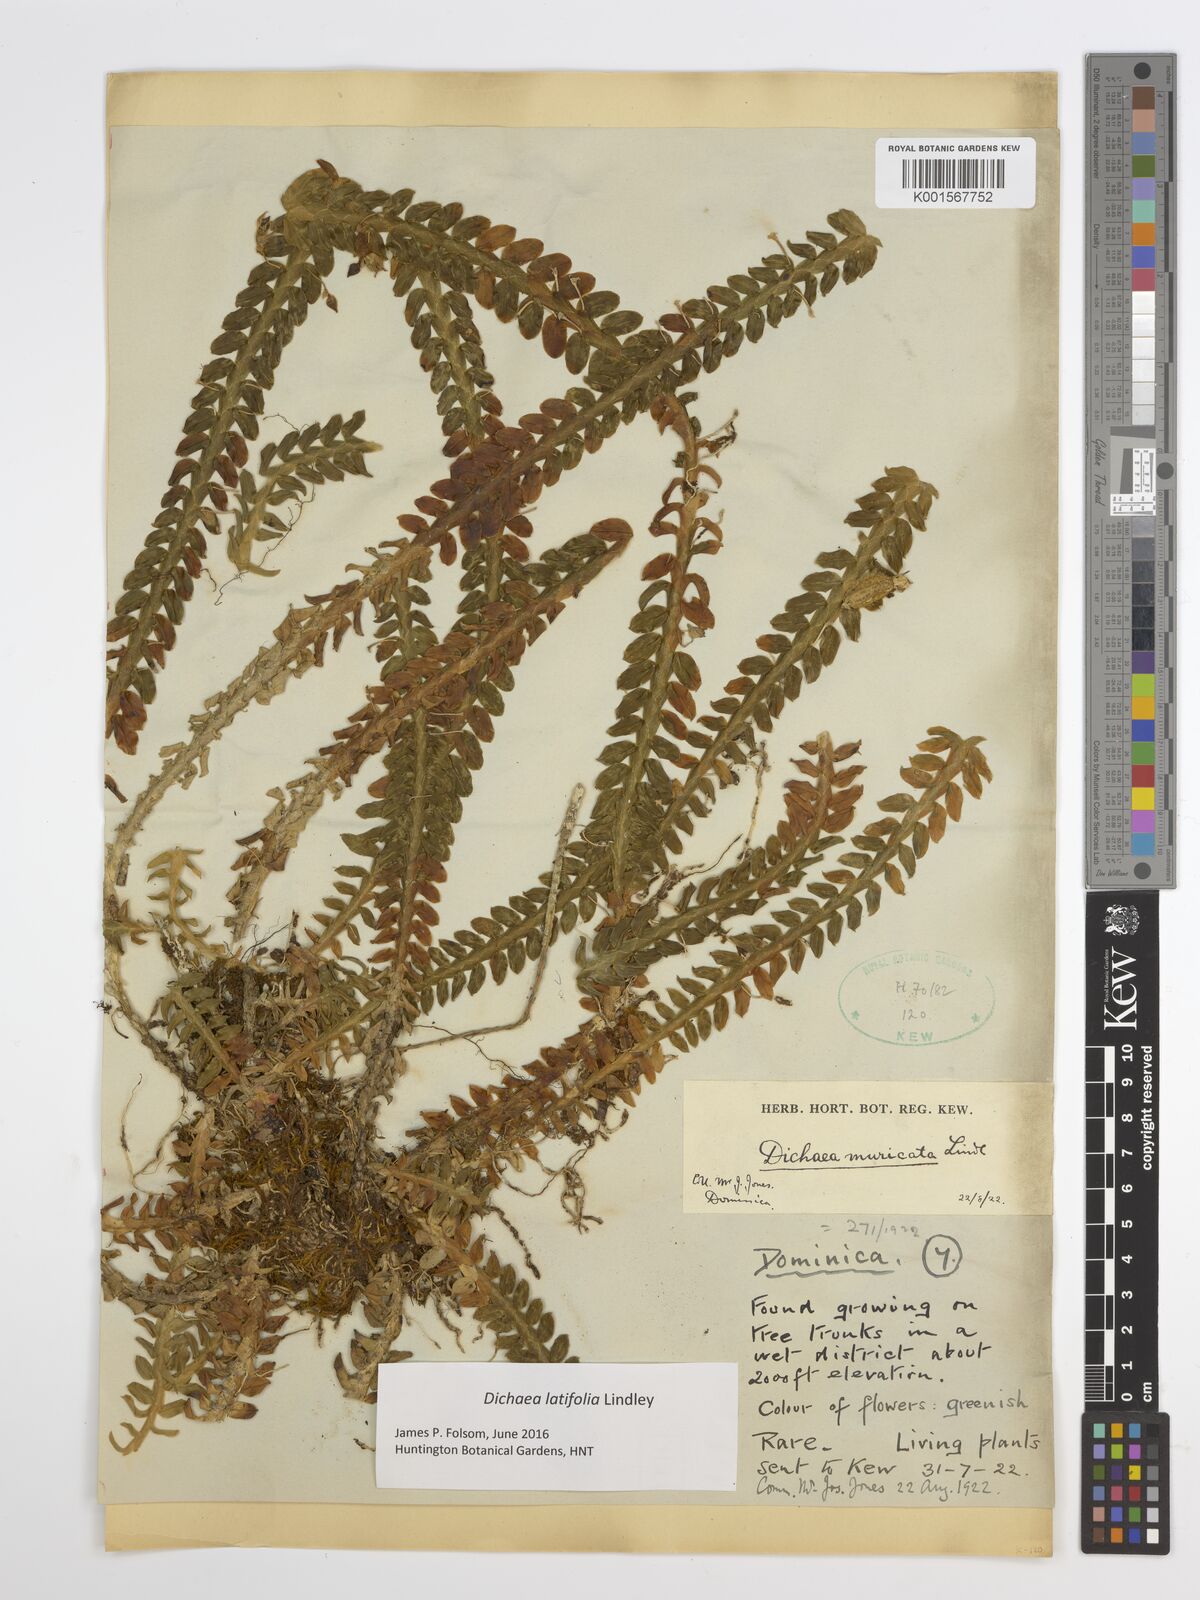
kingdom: Plantae
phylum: Tracheophyta
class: Liliopsida
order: Asparagales
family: Orchidaceae
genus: Dichaea
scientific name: Dichaea latifolia
